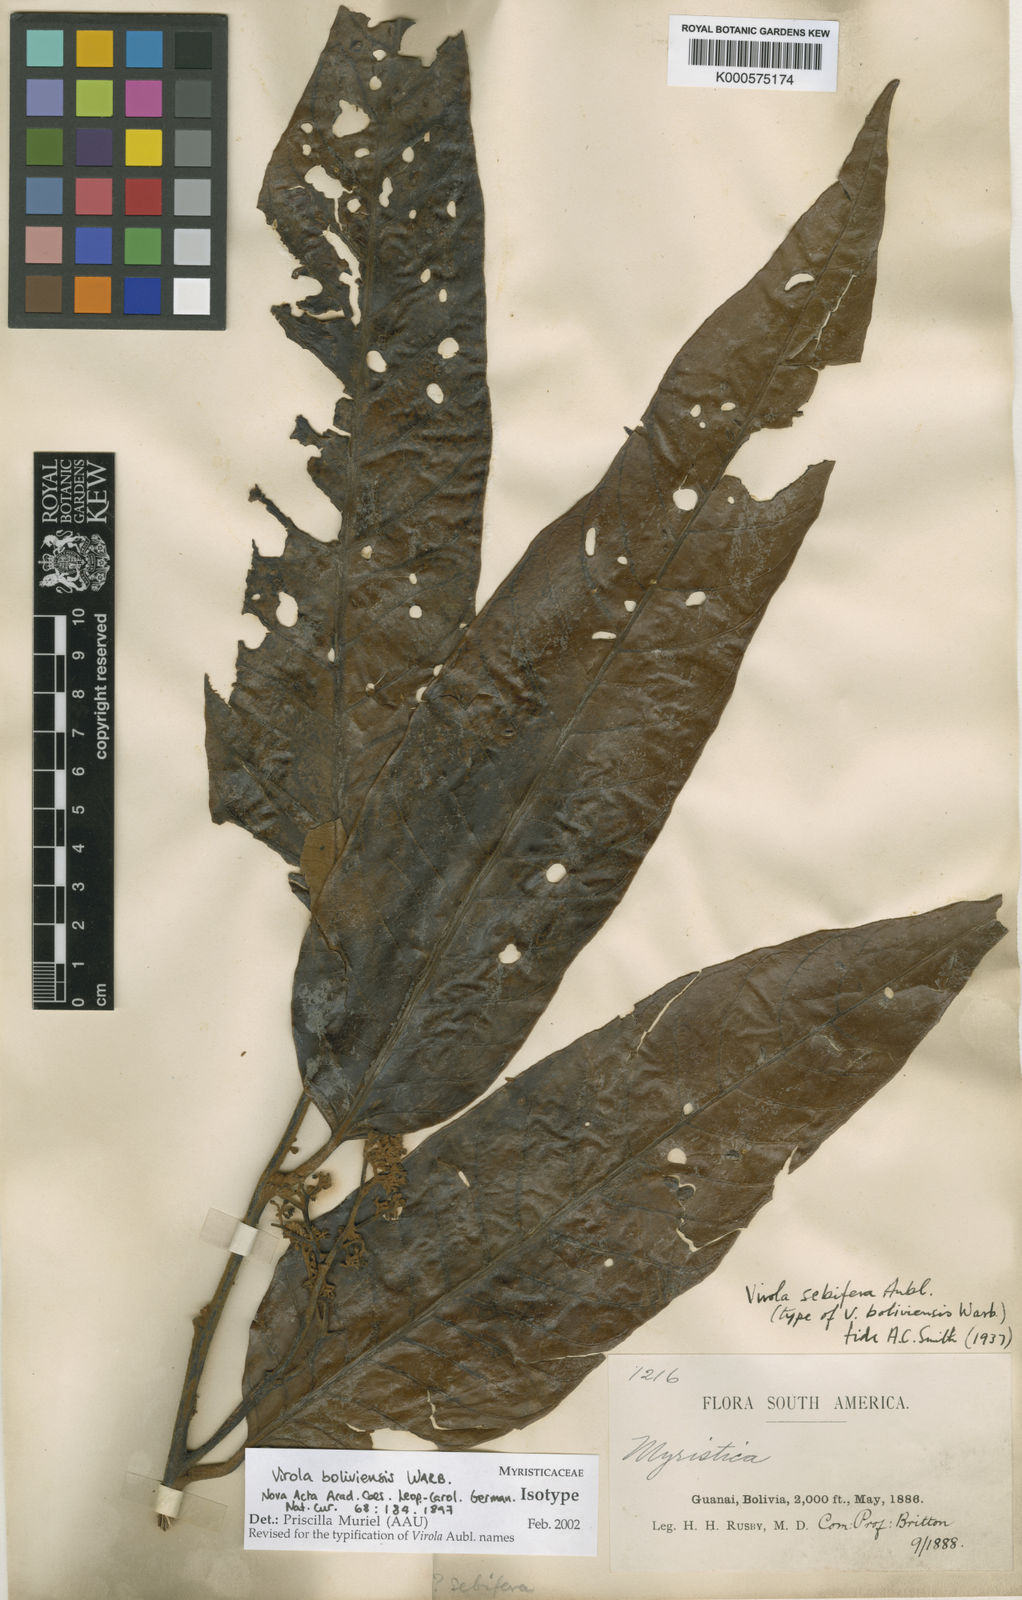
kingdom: Plantae
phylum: Tracheophyta
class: Magnoliopsida
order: Magnoliales
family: Myristicaceae
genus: Virola
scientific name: Virola sebifera
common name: Red ucuuba
